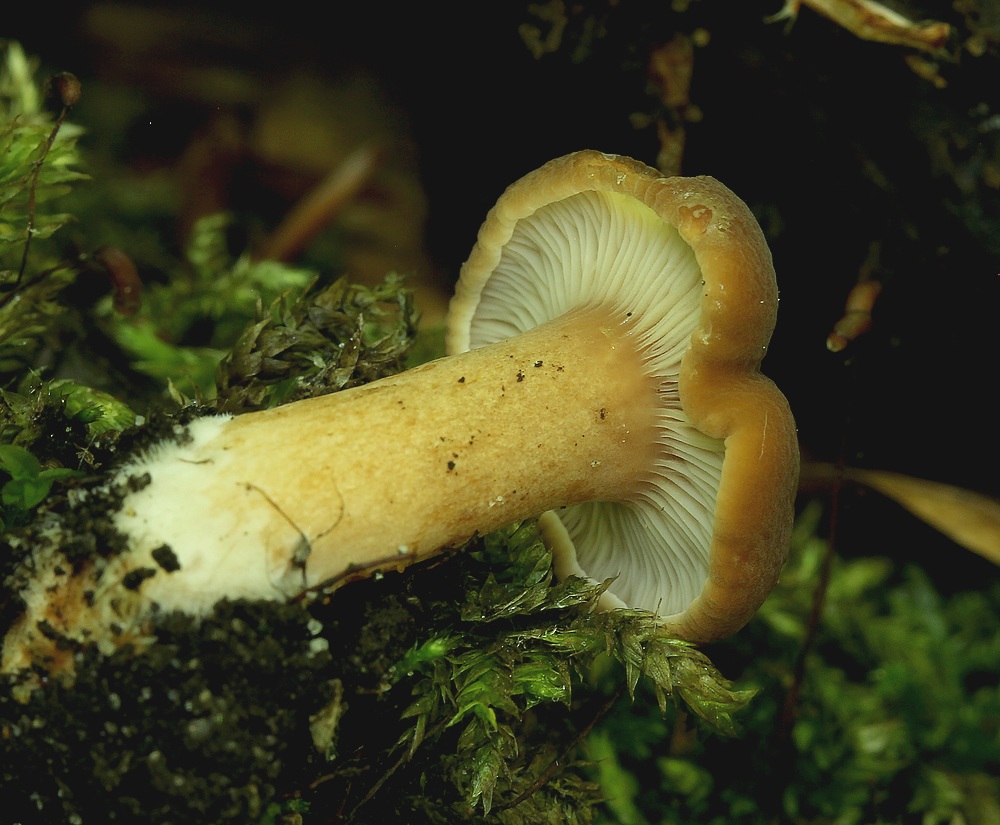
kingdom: Fungi
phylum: Basidiomycota
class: Agaricomycetes
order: Russulales
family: Russulaceae
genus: Lactarius
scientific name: Lactarius
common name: mælkehat
